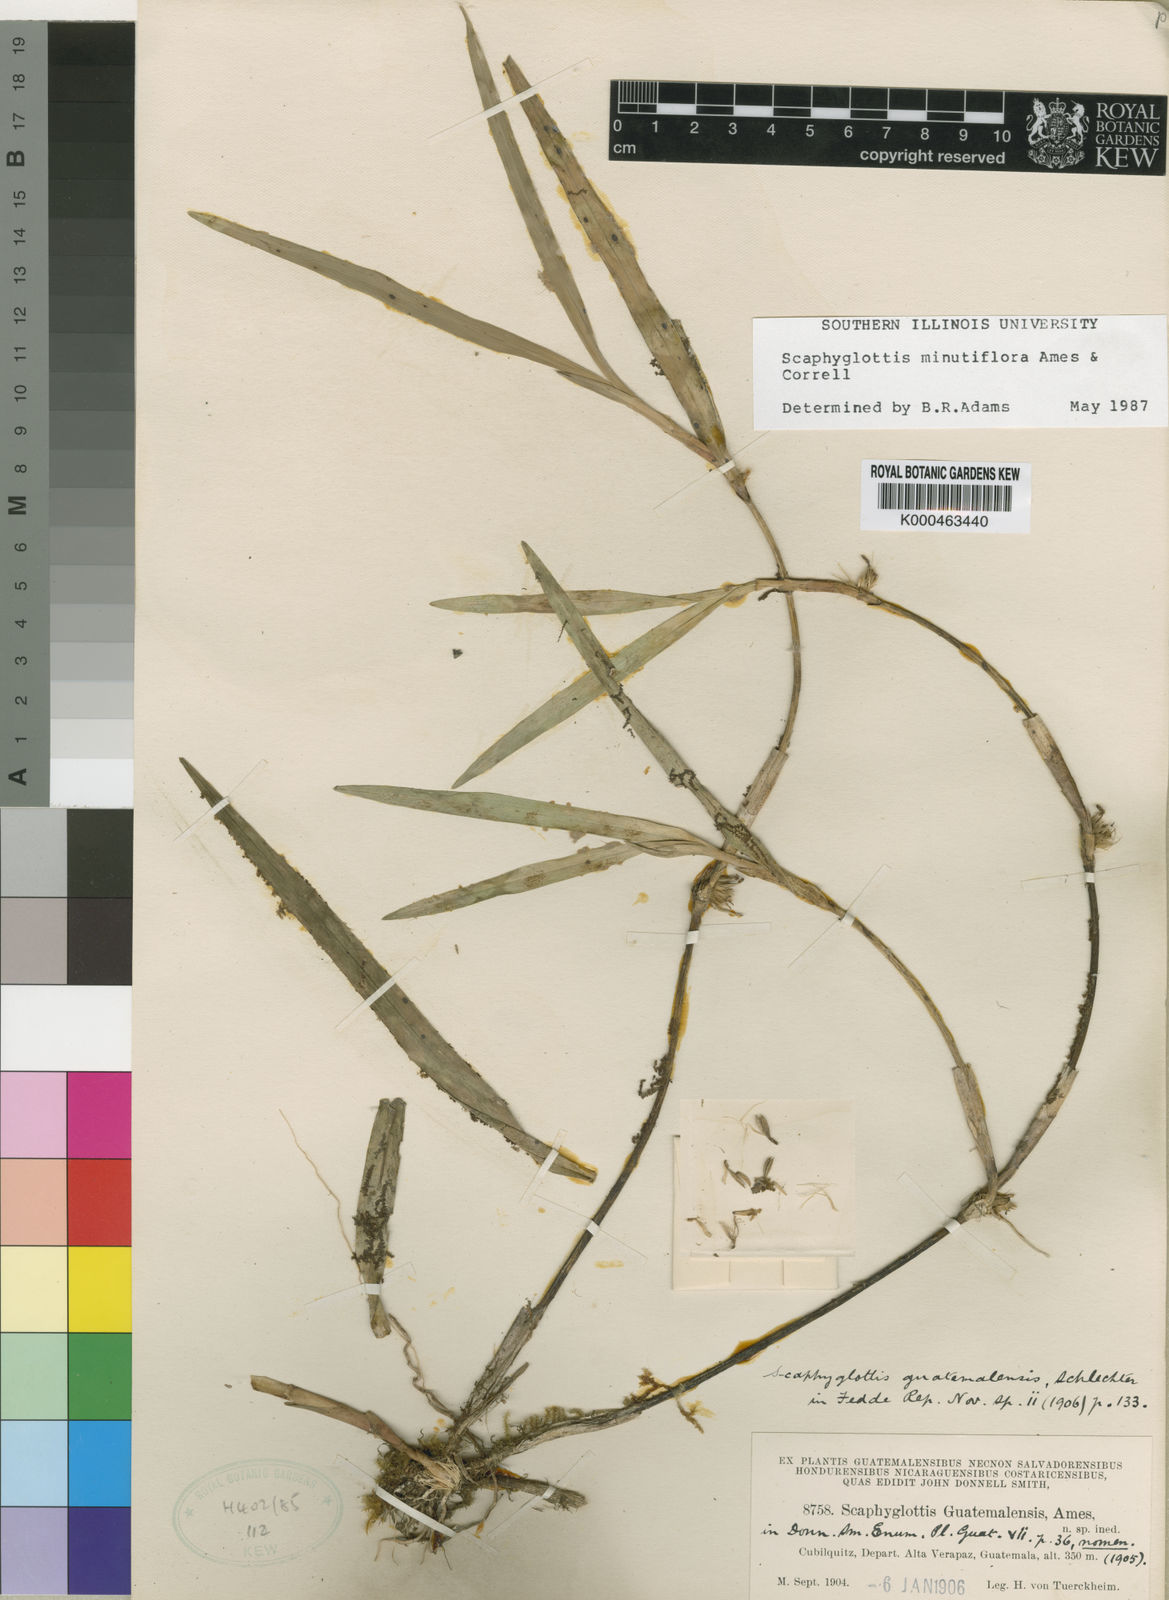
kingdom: Plantae
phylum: Tracheophyta
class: Liliopsida
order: Asparagales
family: Orchidaceae
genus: Scaphyglottis
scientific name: Scaphyglottis minutiflora
